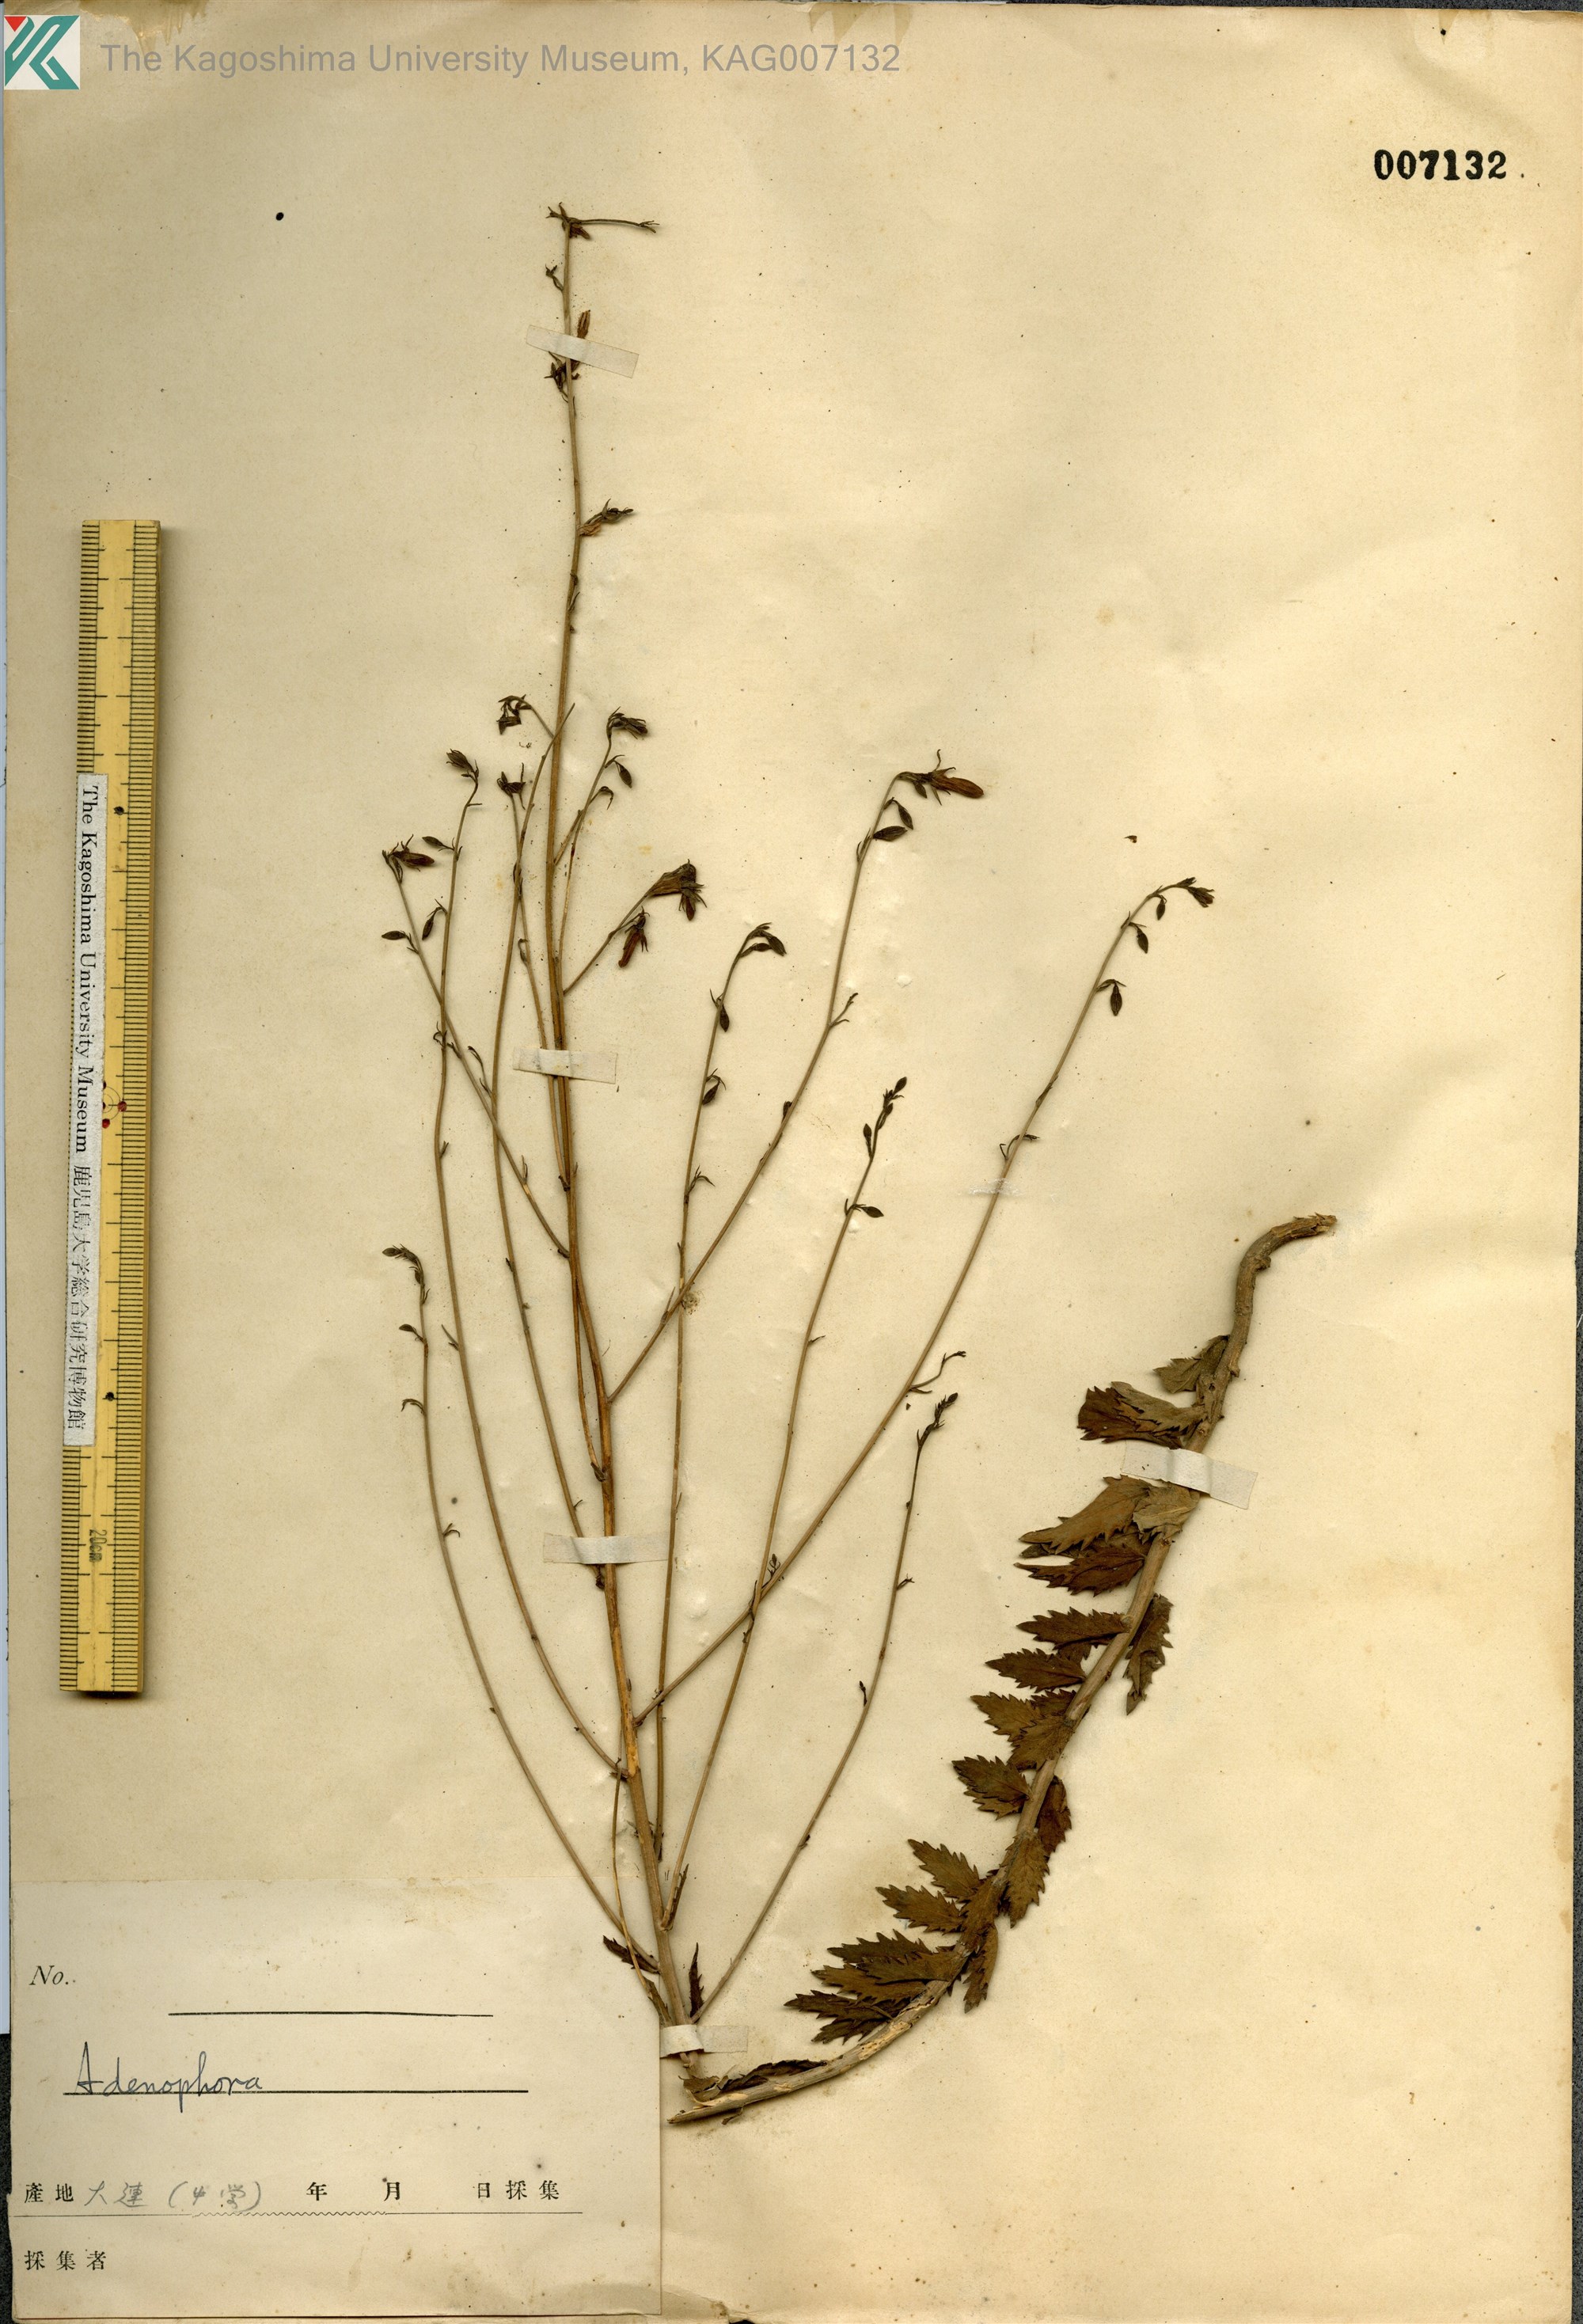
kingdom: Plantae
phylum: Tracheophyta
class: Magnoliopsida
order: Asterales
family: Campanulaceae
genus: Adenophora
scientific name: Adenophora polyantha
